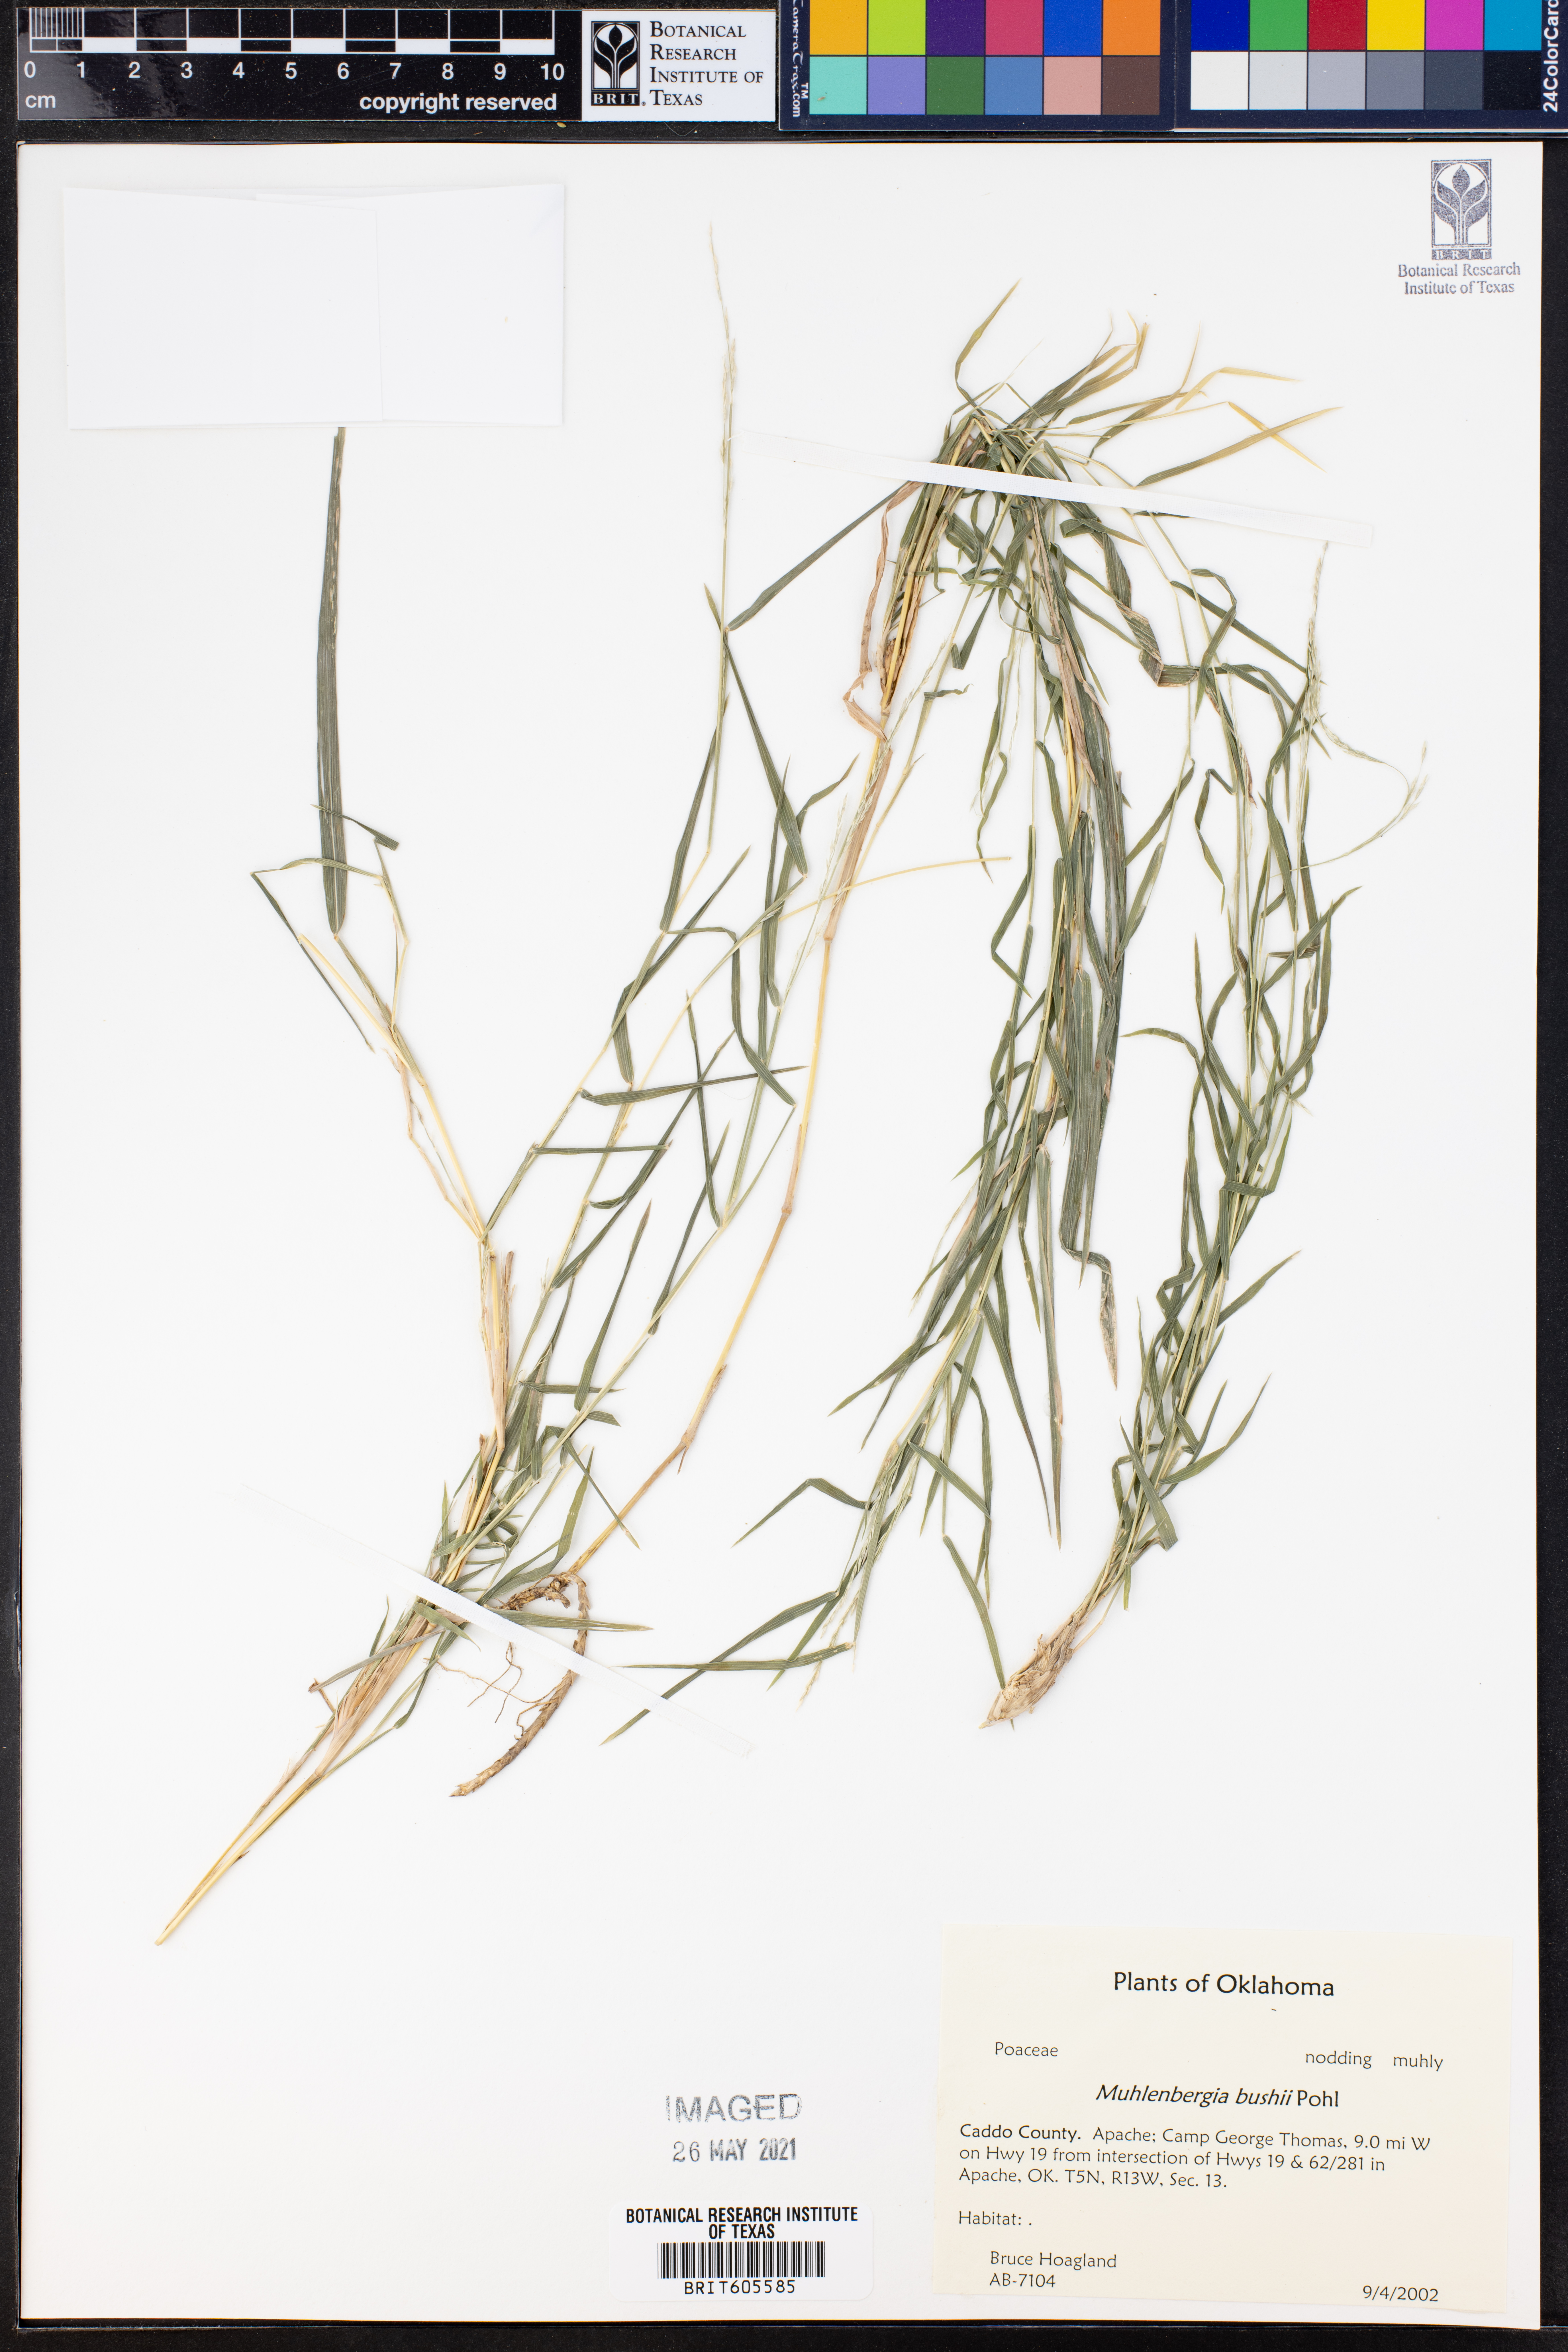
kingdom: Plantae
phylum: Tracheophyta
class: Liliopsida
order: Poales
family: Poaceae
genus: Muhlenbergia
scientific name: Muhlenbergia bushii
